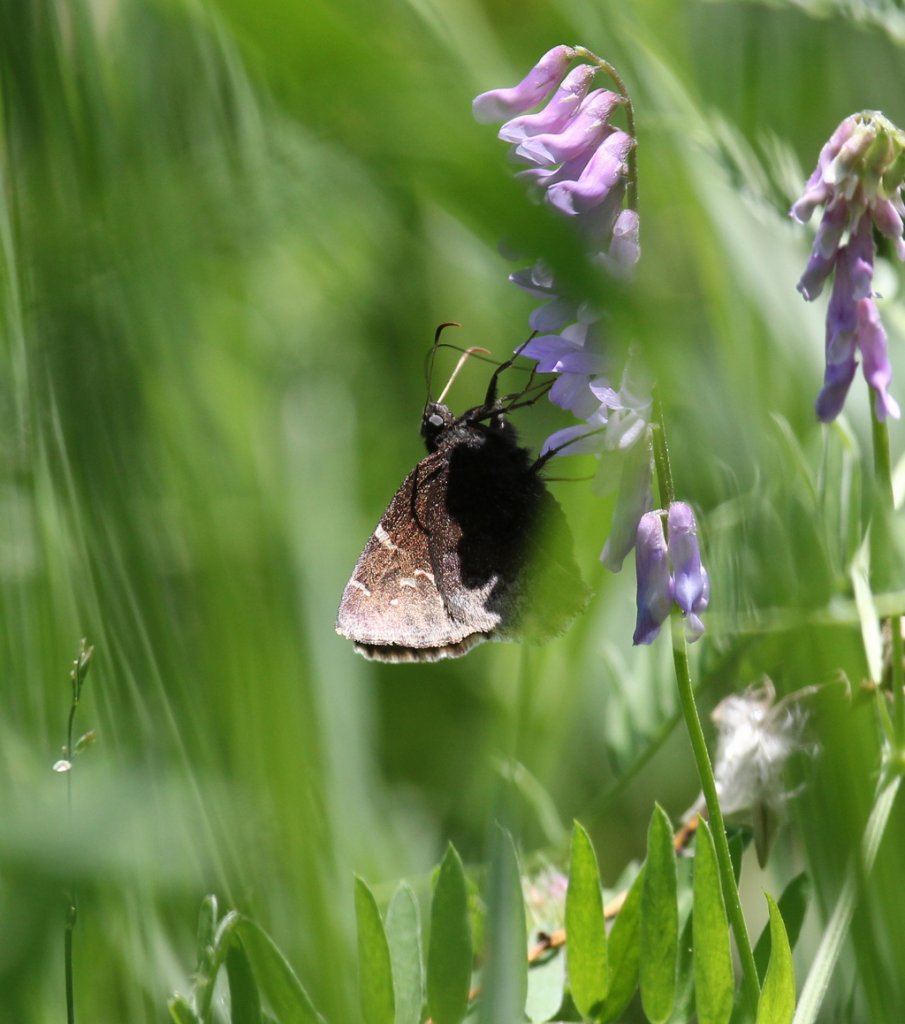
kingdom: Animalia
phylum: Arthropoda
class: Insecta
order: Lepidoptera
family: Hesperiidae
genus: Autochton
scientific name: Autochton
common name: Northern Cloudywing
